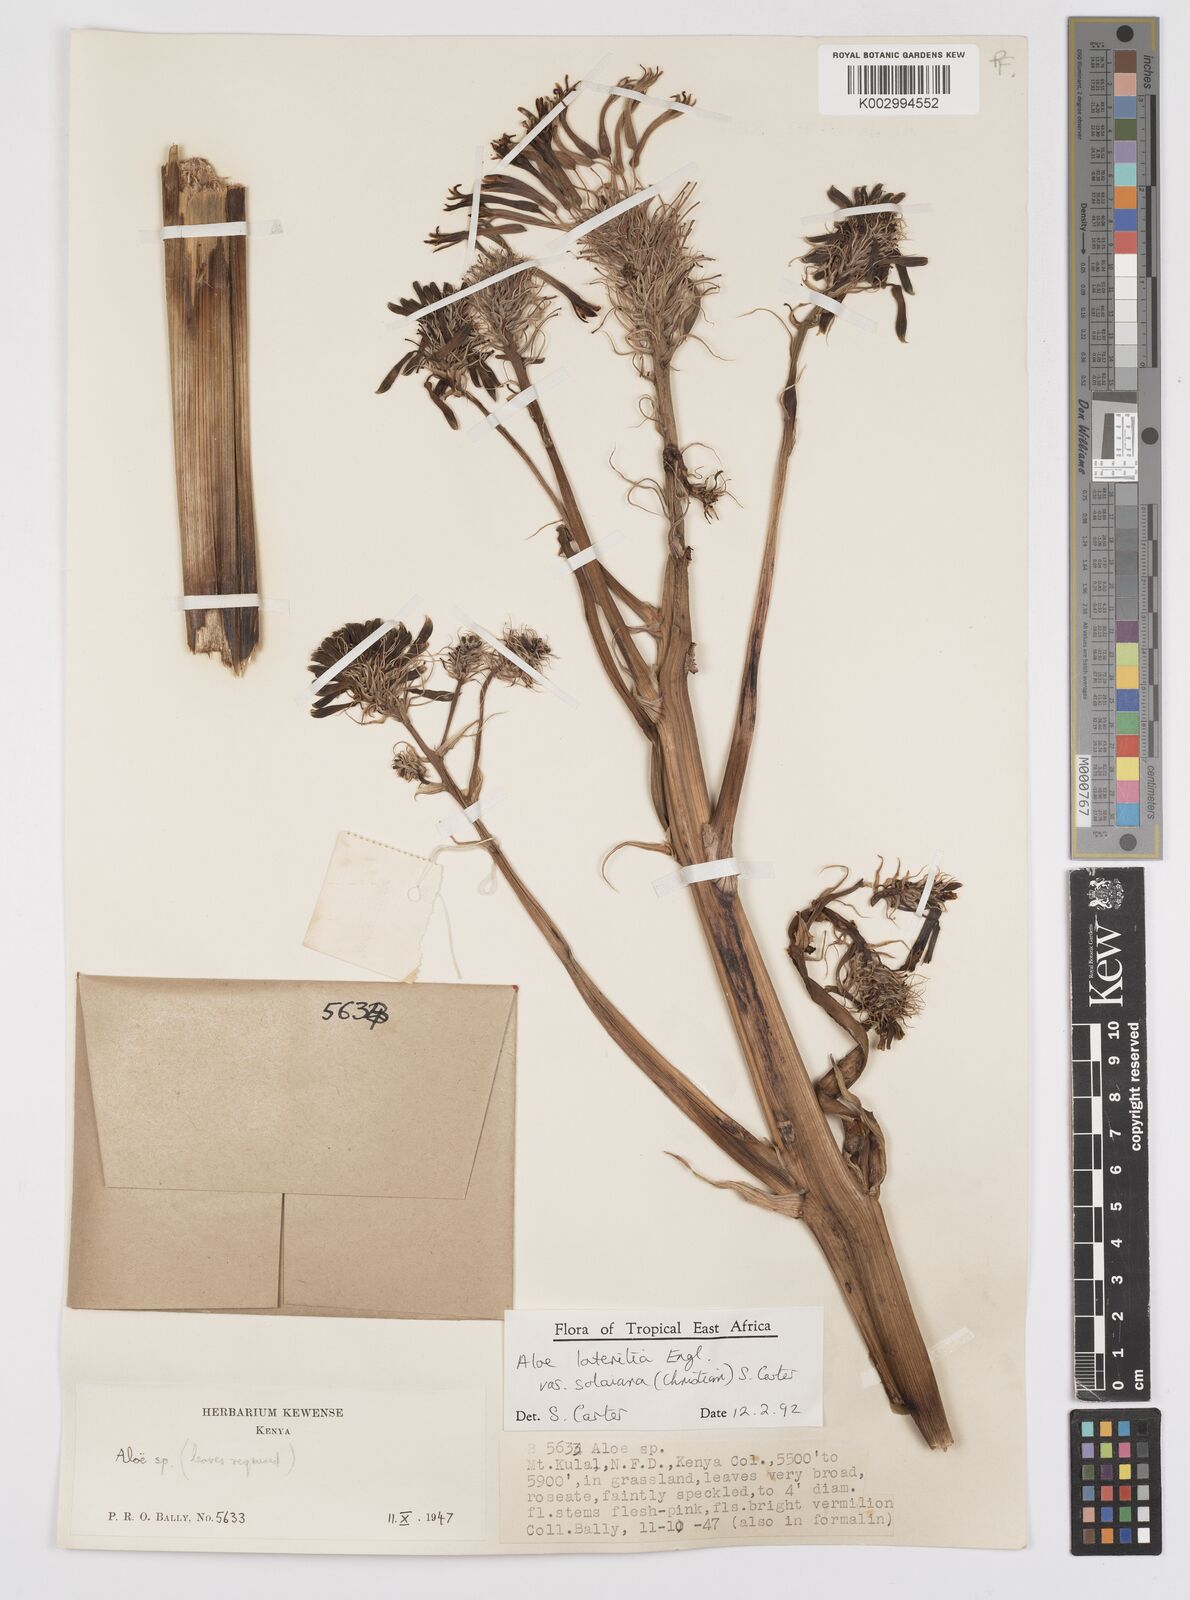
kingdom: Plantae
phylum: Tracheophyta
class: Liliopsida
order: Asparagales
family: Asphodelaceae
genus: Aloe
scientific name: Aloe lateritia
